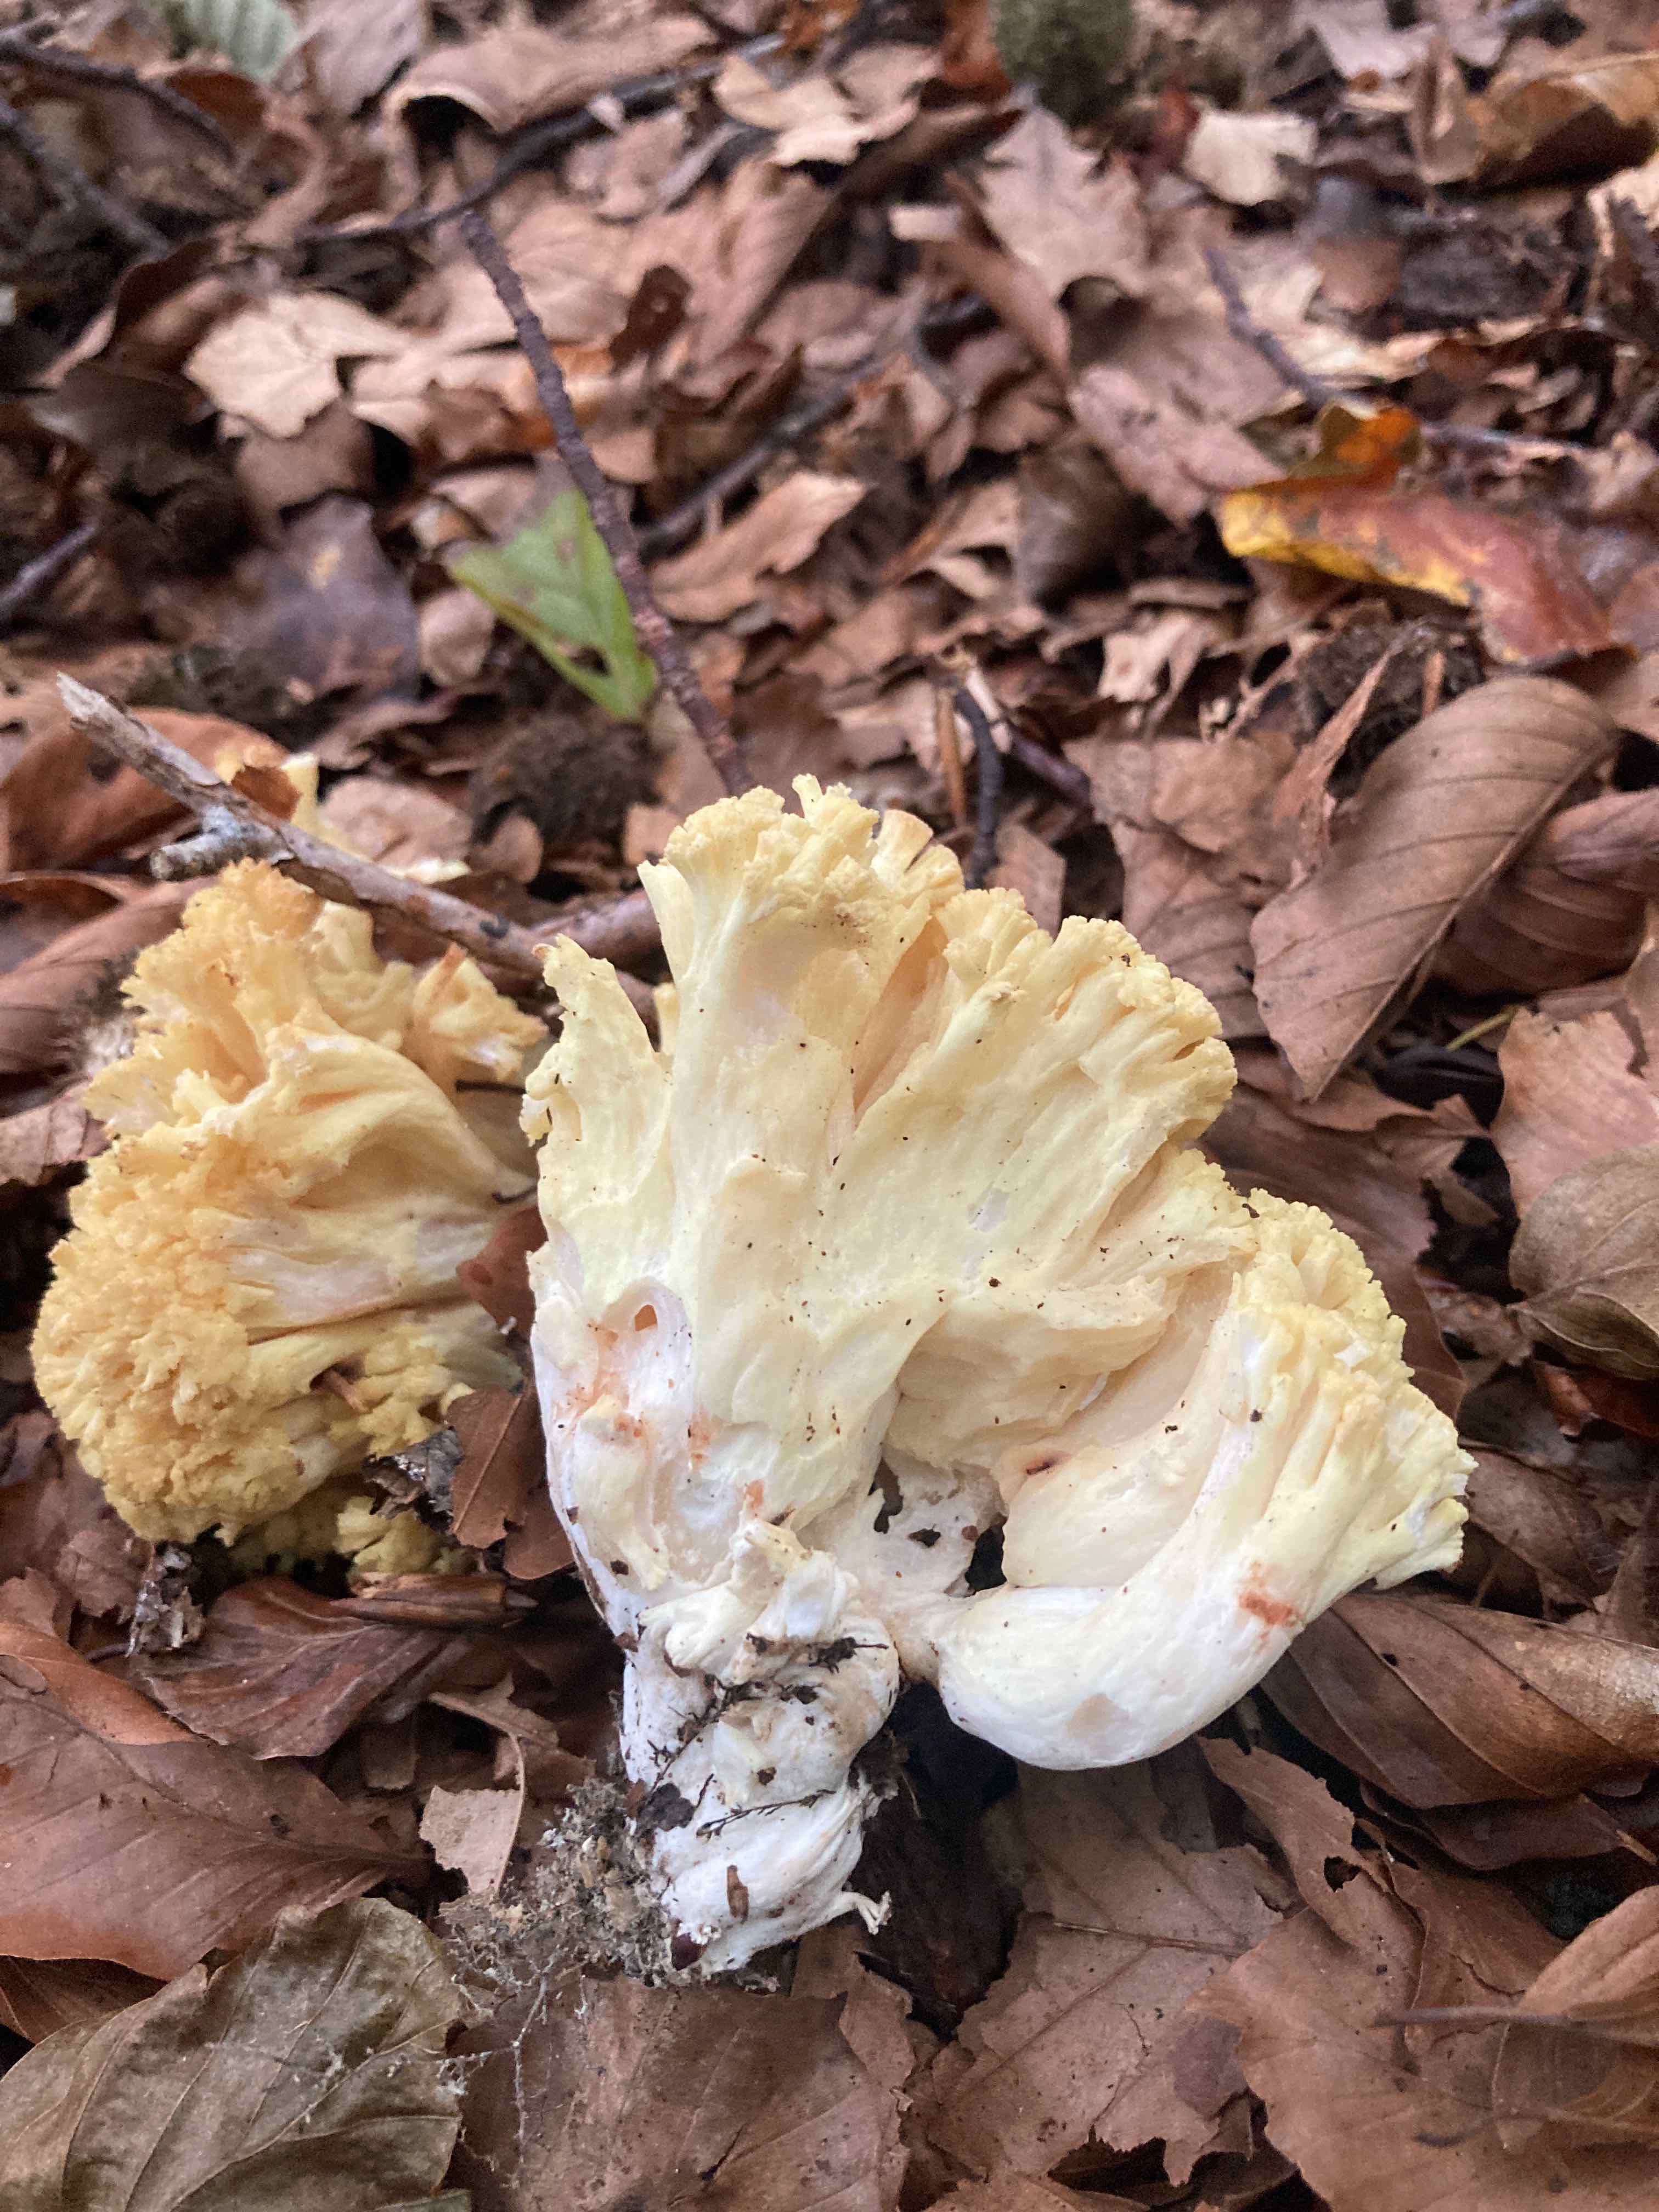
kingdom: Fungi
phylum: Basidiomycota
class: Agaricomycetes
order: Gomphales
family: Gomphaceae
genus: Ramaria
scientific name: Ramaria sanguinea
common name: blodplettet koralsvamp
